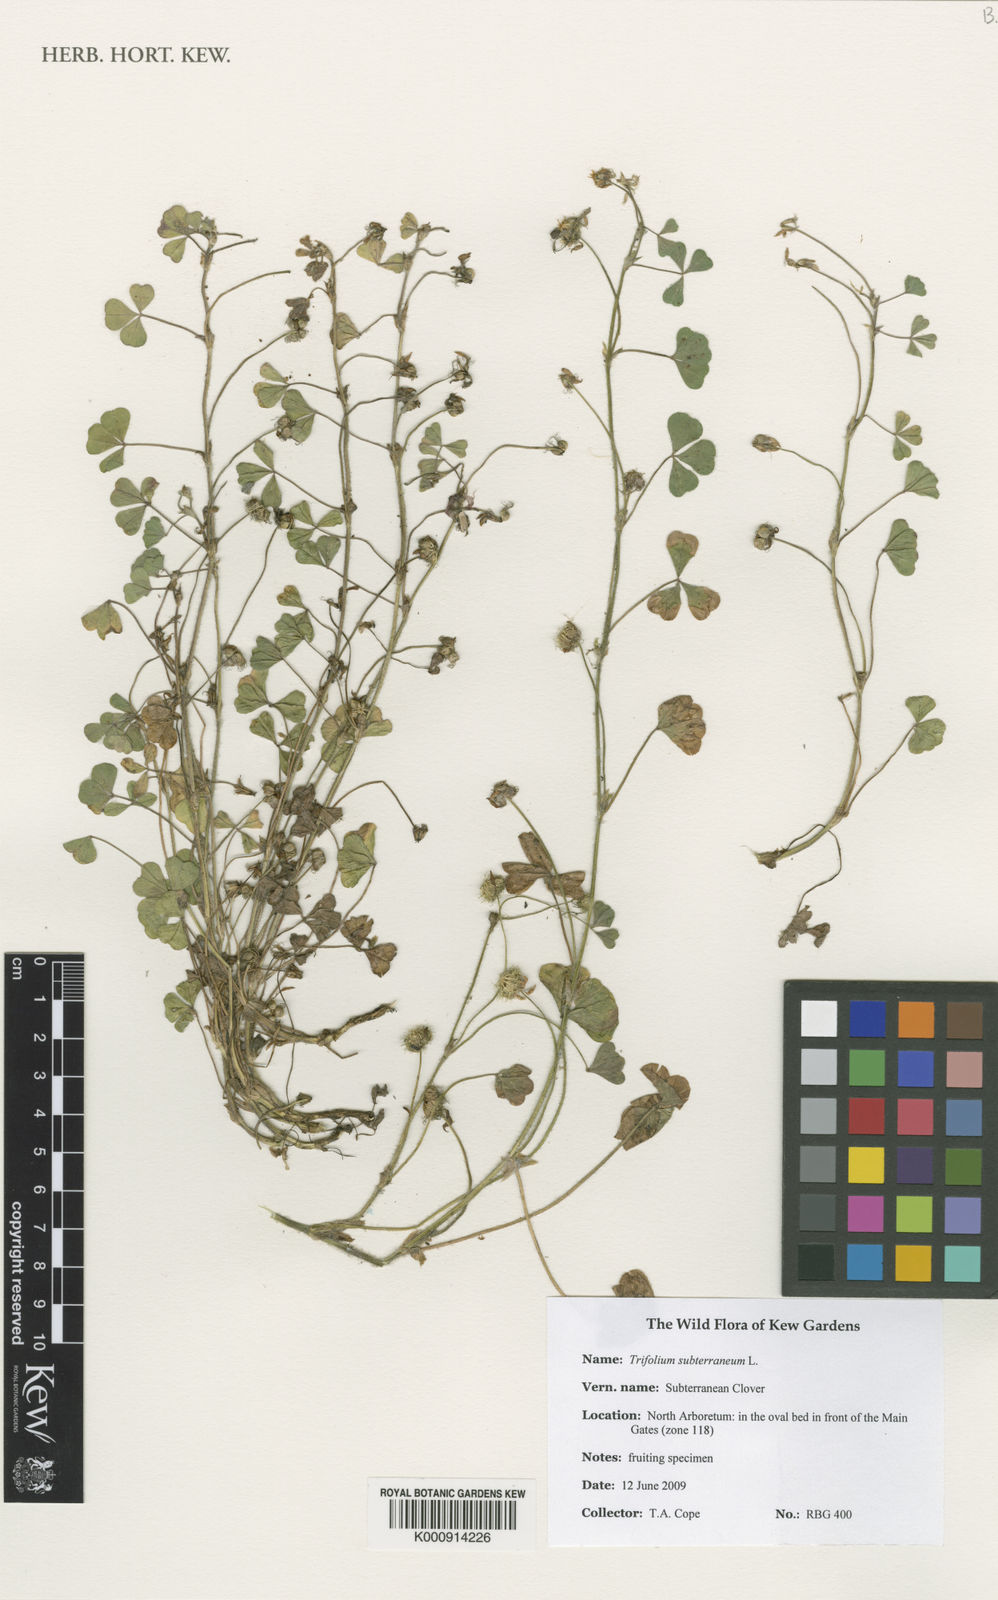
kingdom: Plantae
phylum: Tracheophyta
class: Magnoliopsida
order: Fabales
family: Fabaceae
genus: Trifolium
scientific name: Trifolium subterraneum
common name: Subterranean clover
